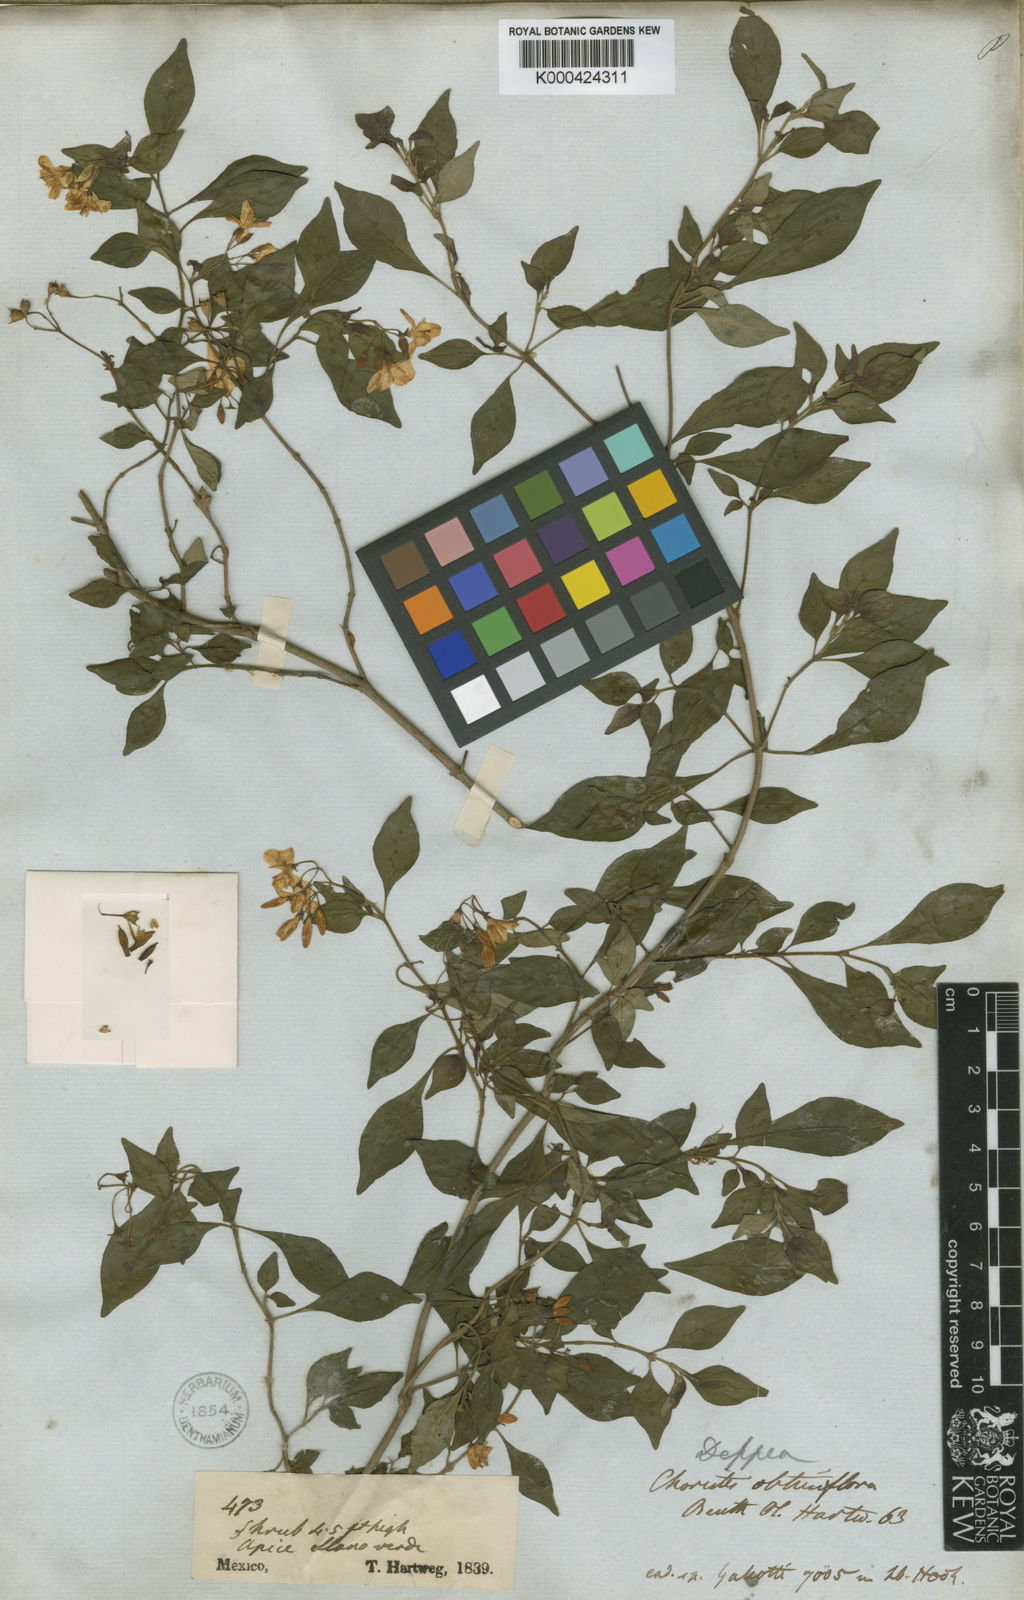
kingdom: Plantae
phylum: Tracheophyta
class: Magnoliopsida
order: Gentianales
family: Rubiaceae
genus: Deppea
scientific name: Deppea obtusiflora
